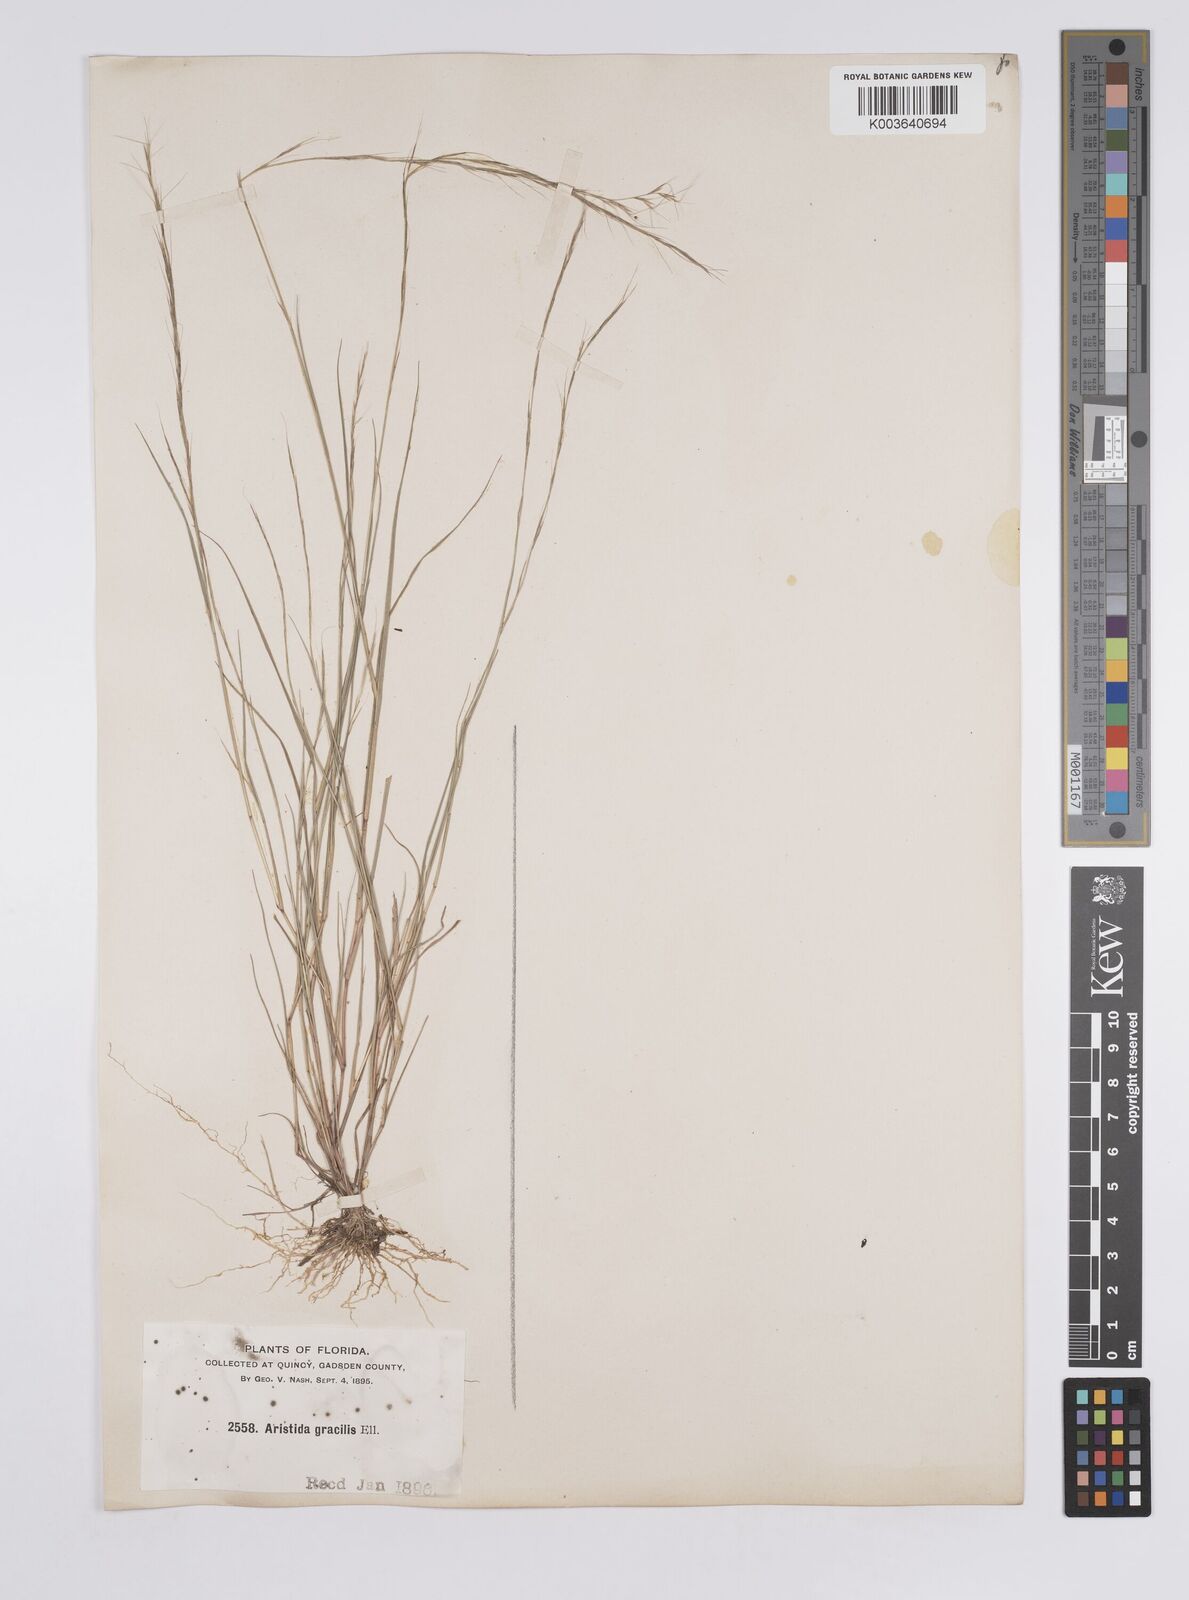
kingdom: Plantae
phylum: Tracheophyta
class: Liliopsida
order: Poales
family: Poaceae
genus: Aristida
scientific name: Aristida longespica
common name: Long-spiked triple-awned grass
